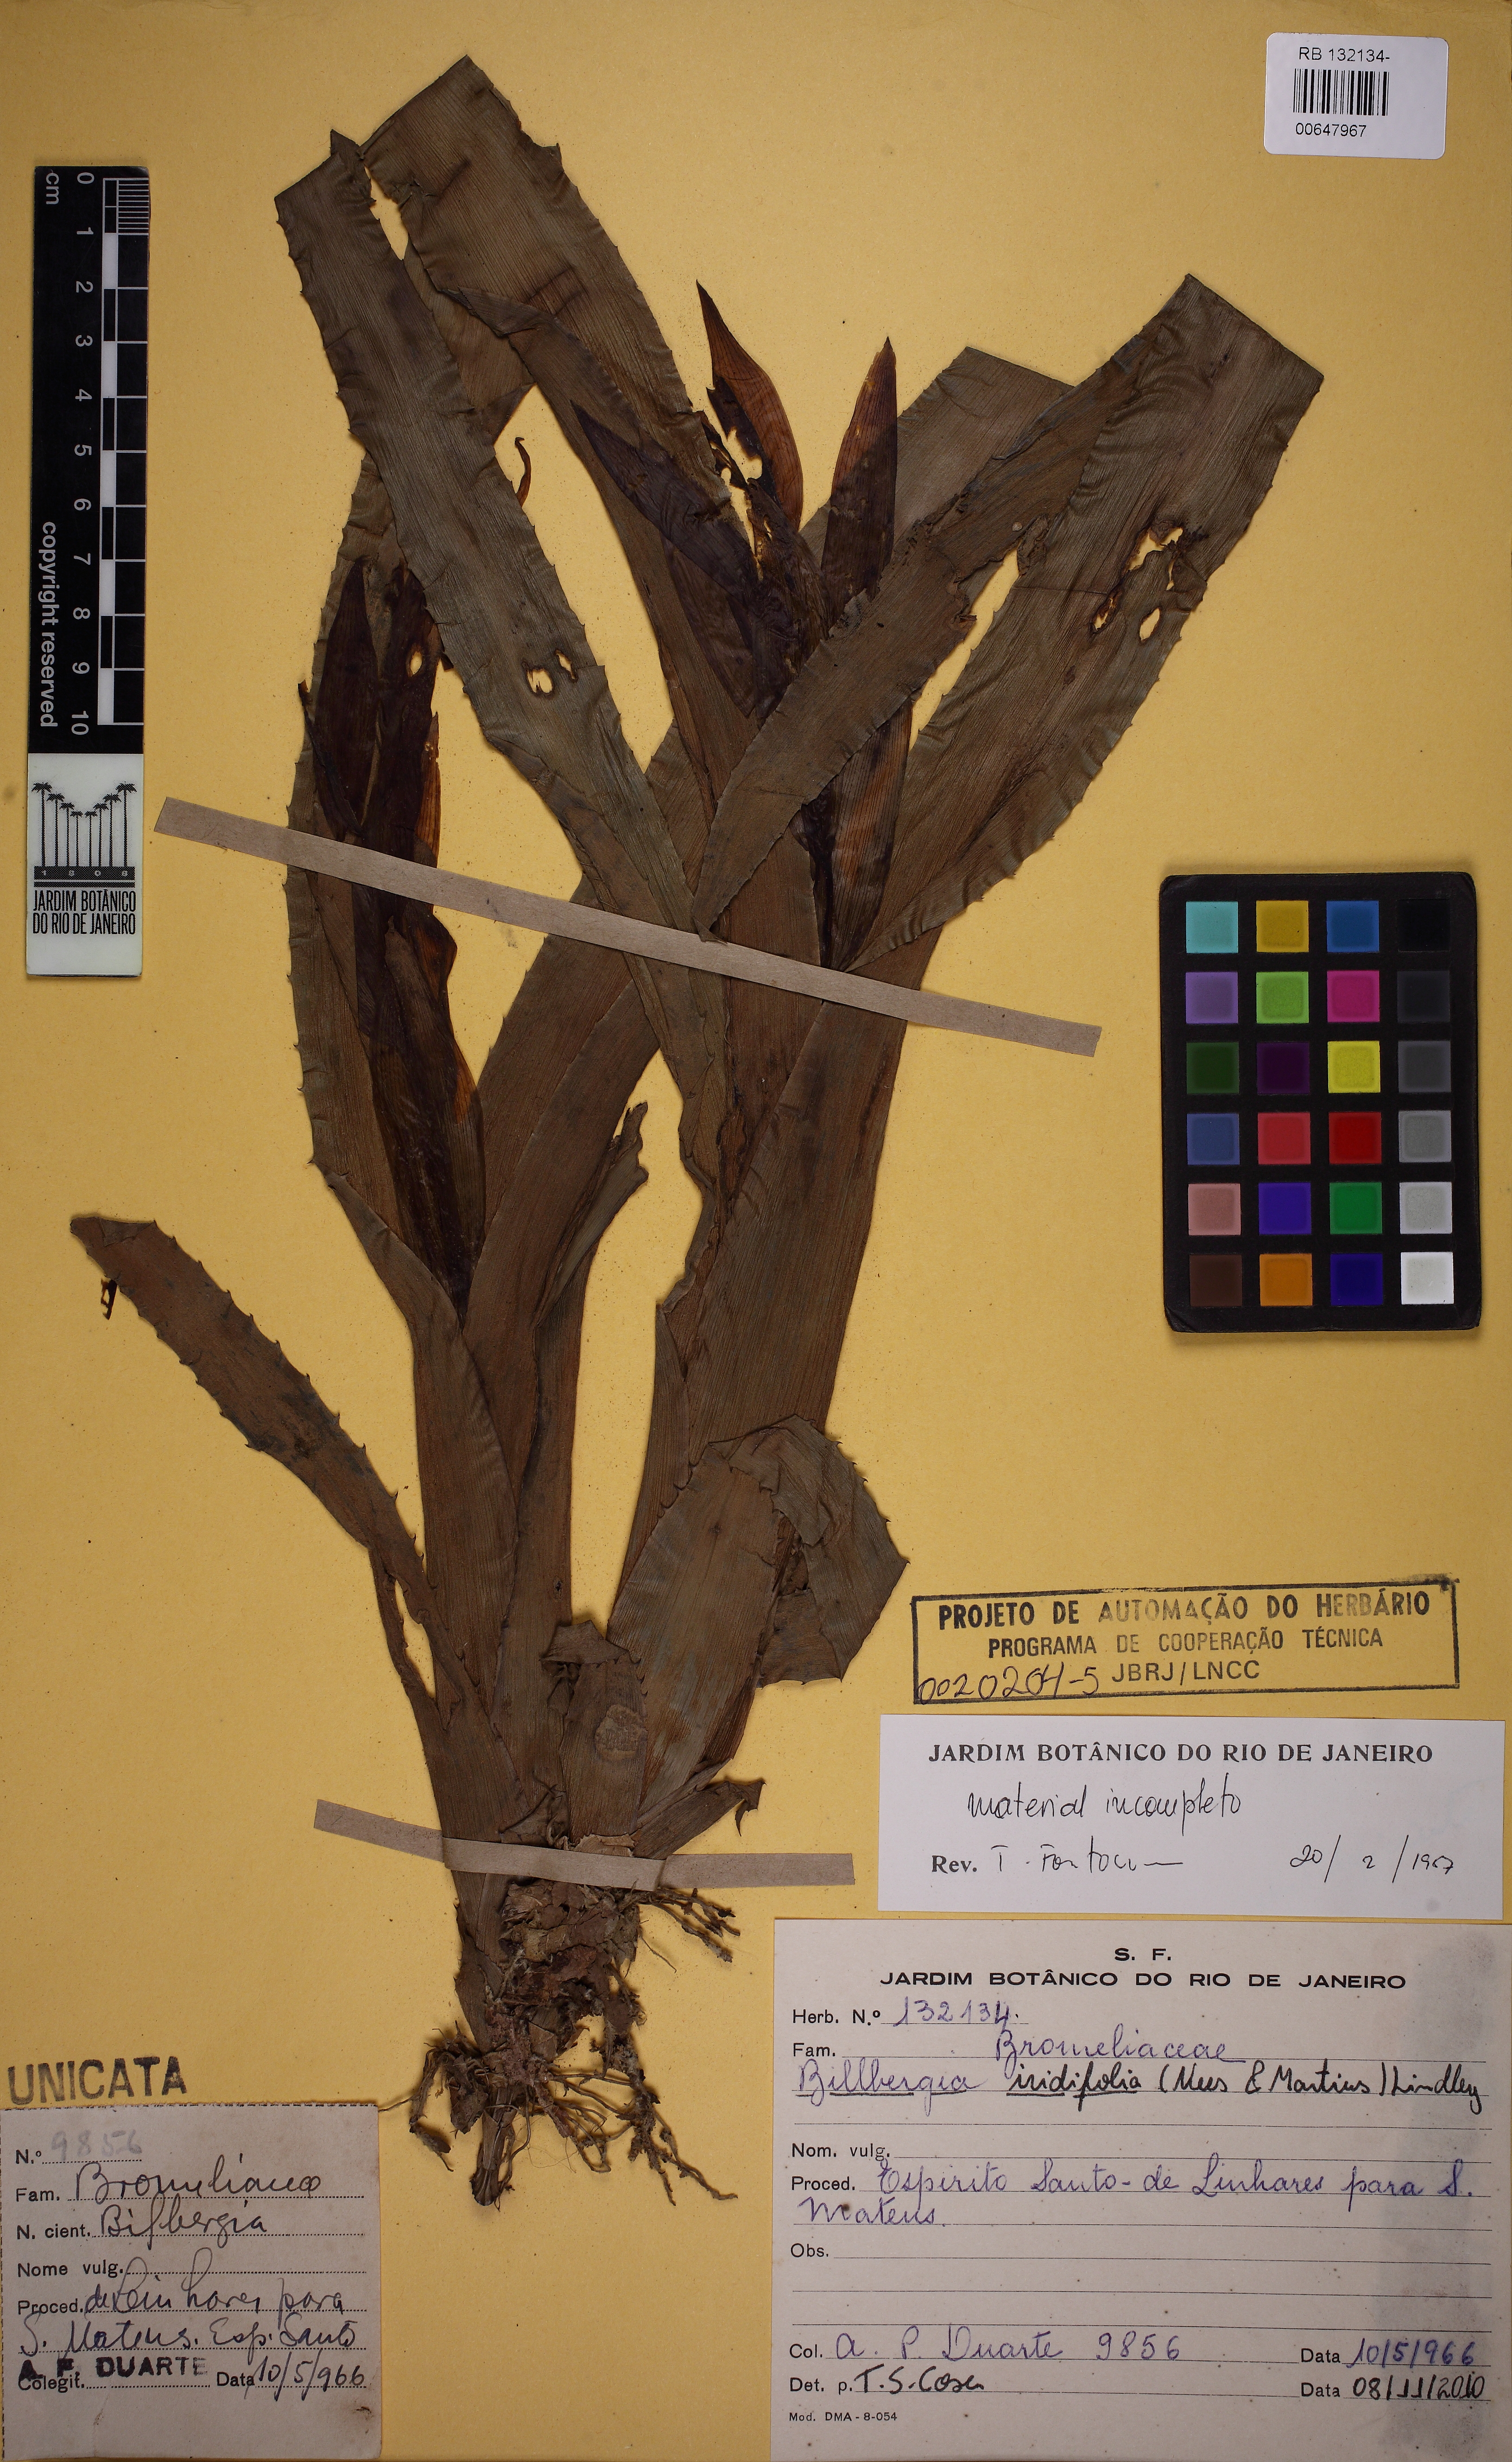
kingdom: Plantae
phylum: Tracheophyta
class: Liliopsida
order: Poales
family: Bromeliaceae
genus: Billbergia
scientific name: Billbergia iridifolia
